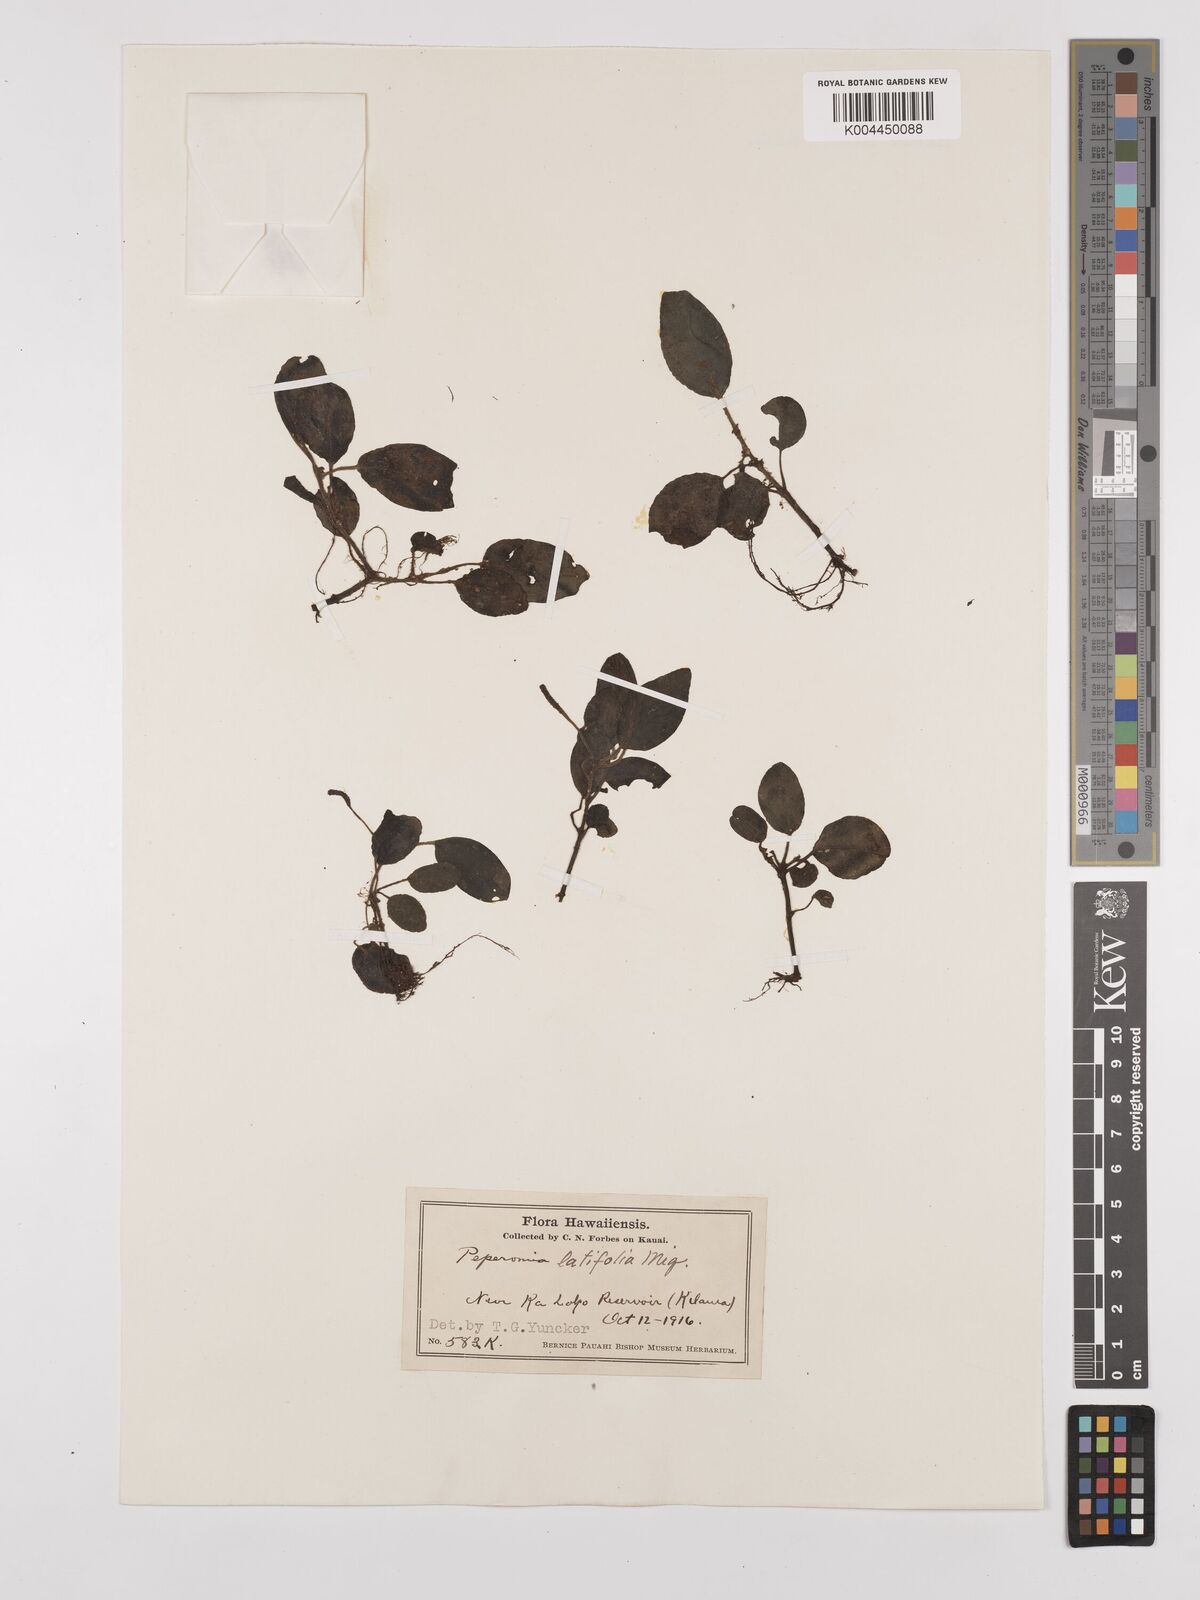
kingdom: Plantae
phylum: Tracheophyta
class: Magnoliopsida
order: Piperales
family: Piperaceae
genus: Peperomia
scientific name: Peperomia latifolia
